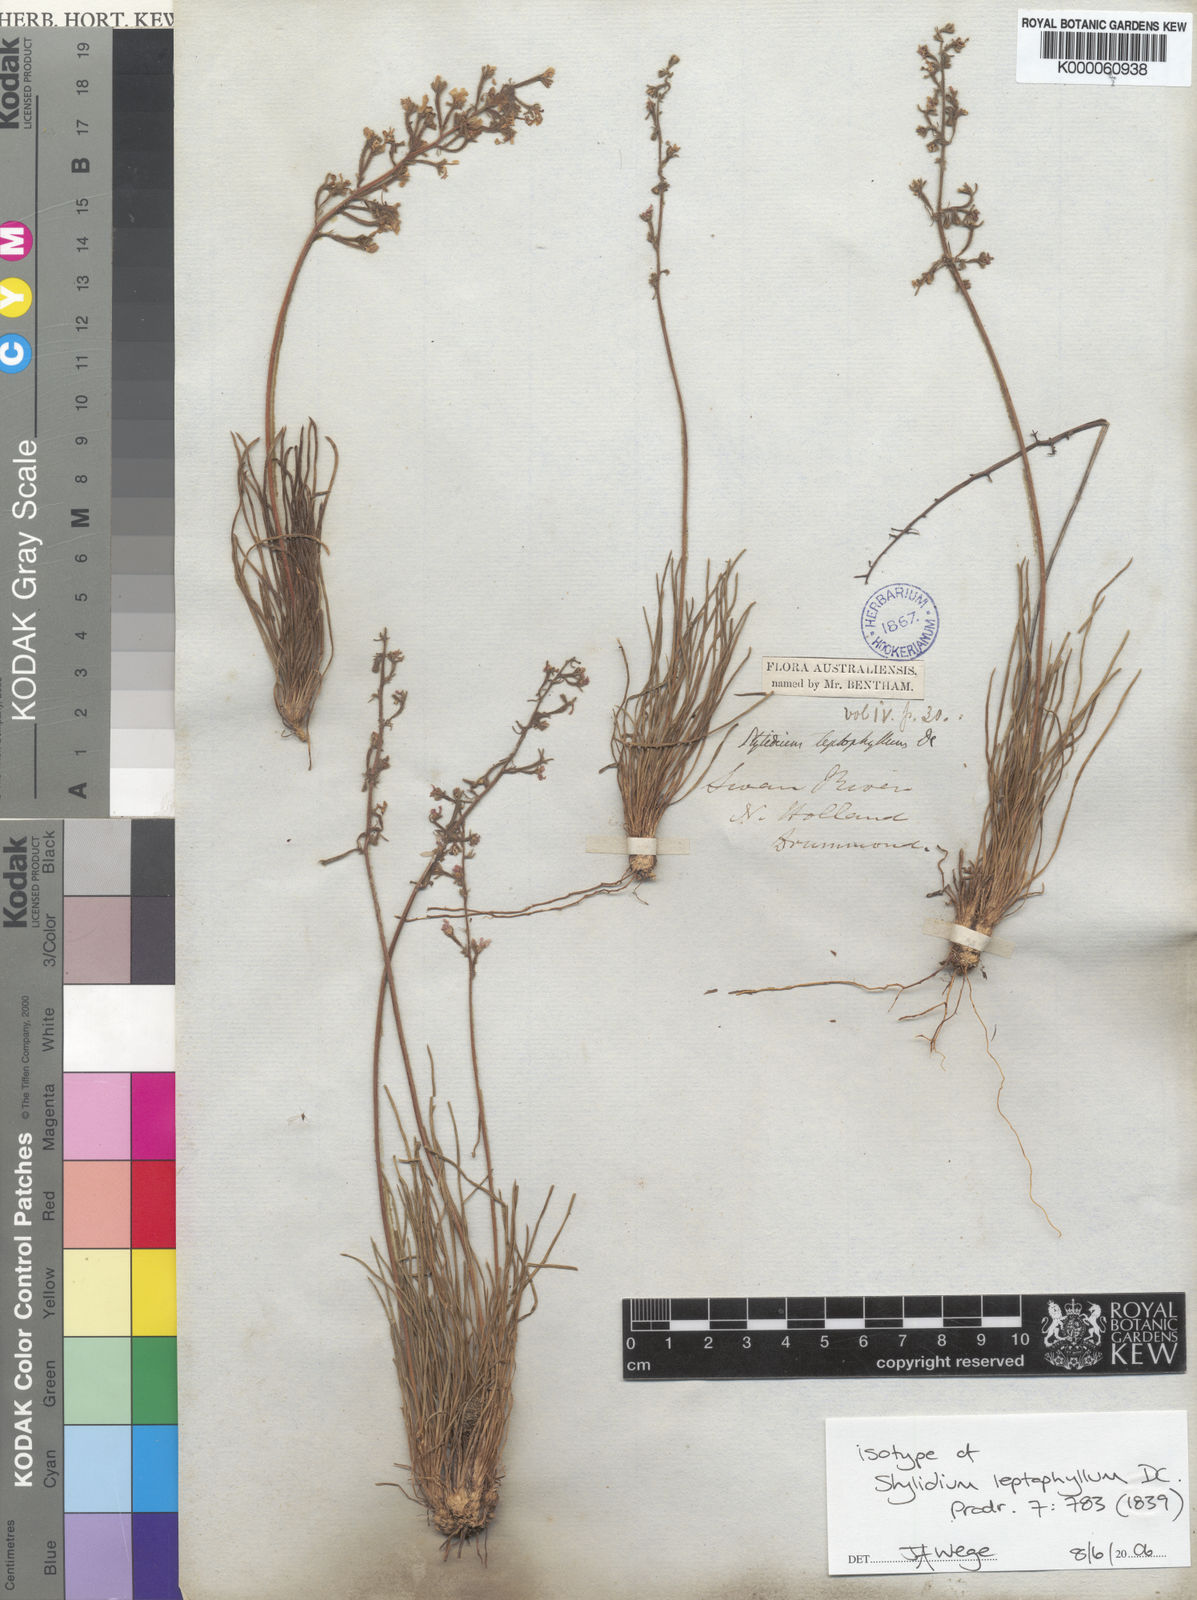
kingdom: Plantae
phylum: Tracheophyta
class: Magnoliopsida
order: Asterales
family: Stylidiaceae
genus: Stylidium
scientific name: Stylidium leptophyllum
